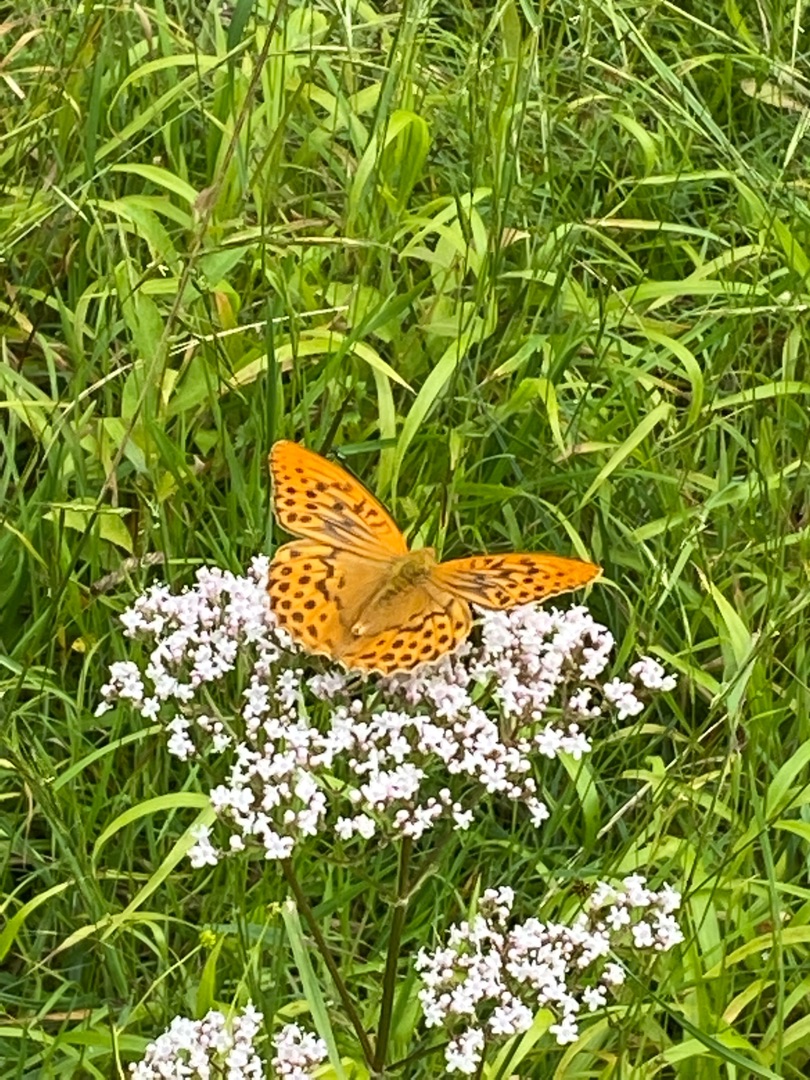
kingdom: Animalia
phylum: Arthropoda
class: Insecta
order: Lepidoptera
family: Nymphalidae
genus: Argynnis
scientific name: Argynnis paphia
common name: Kejserkåbe
